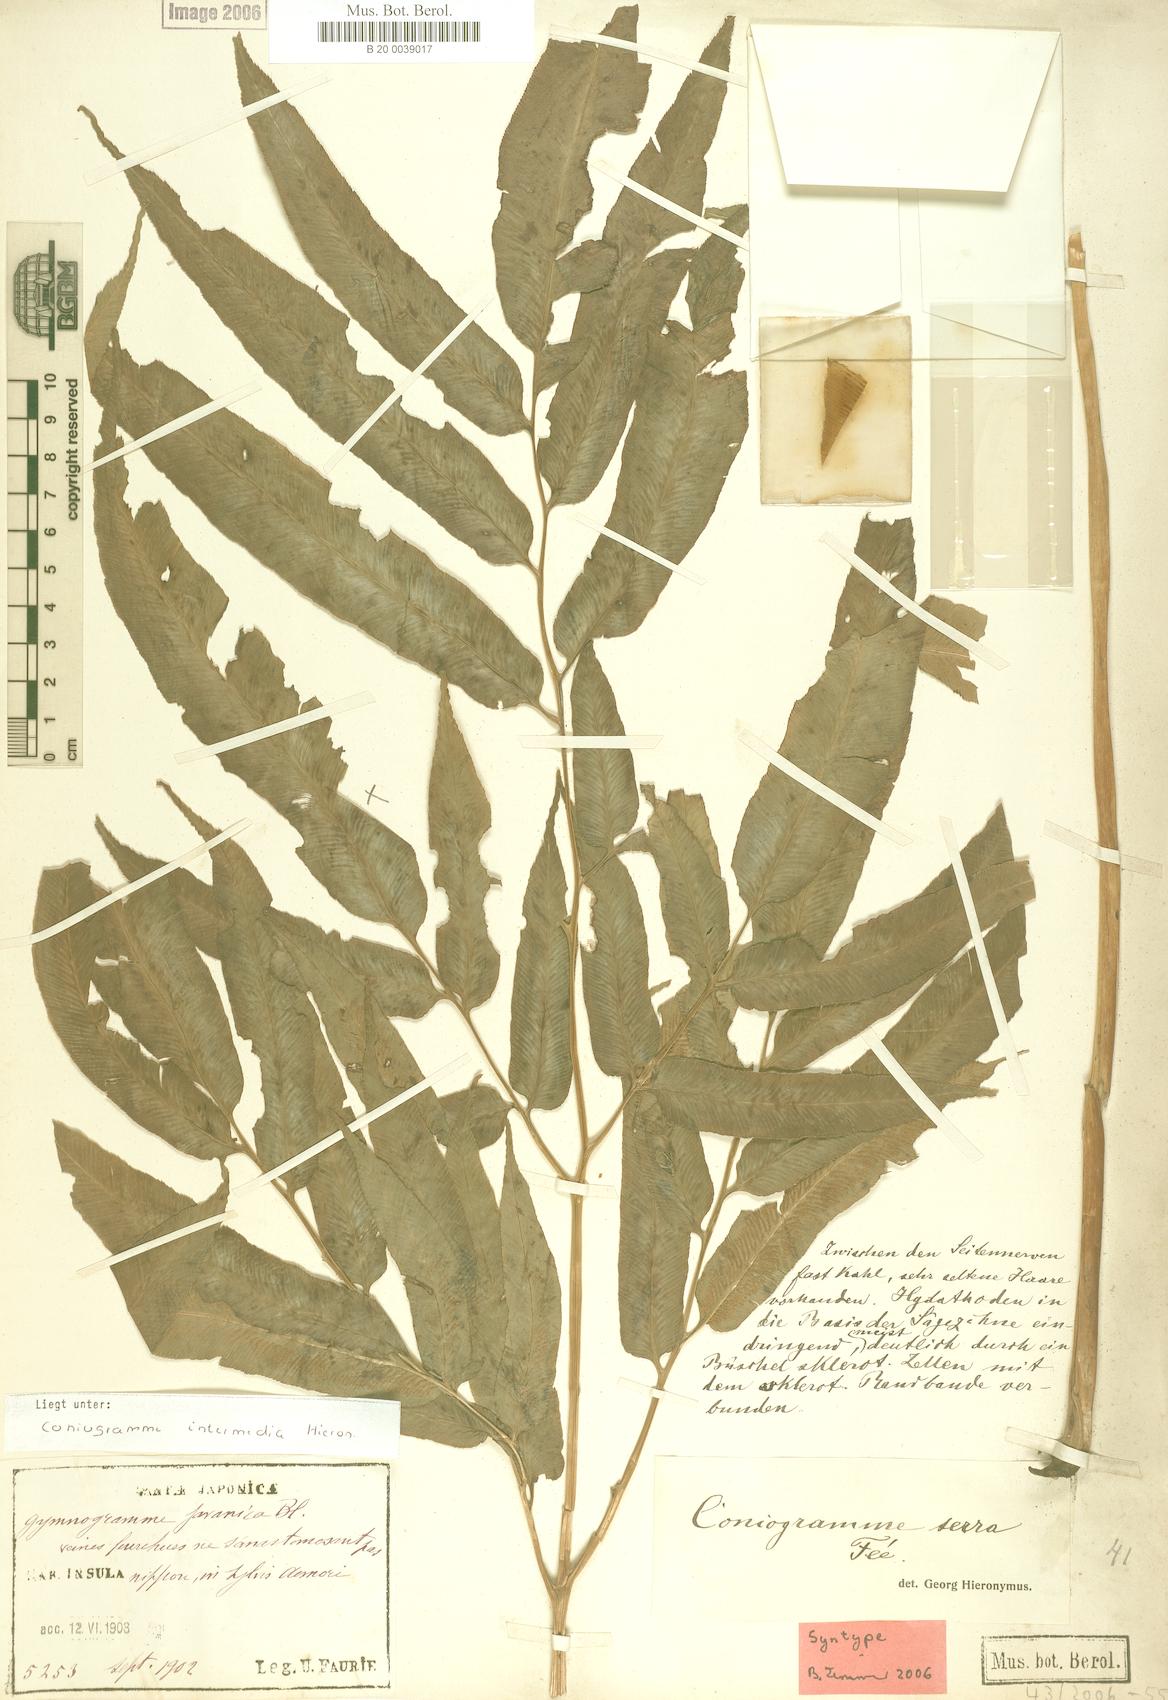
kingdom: Plantae
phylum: Tracheophyta
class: Polypodiopsida
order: Polypodiales
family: Pteridaceae
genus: Coniogramme
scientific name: Coniogramme intermedia
